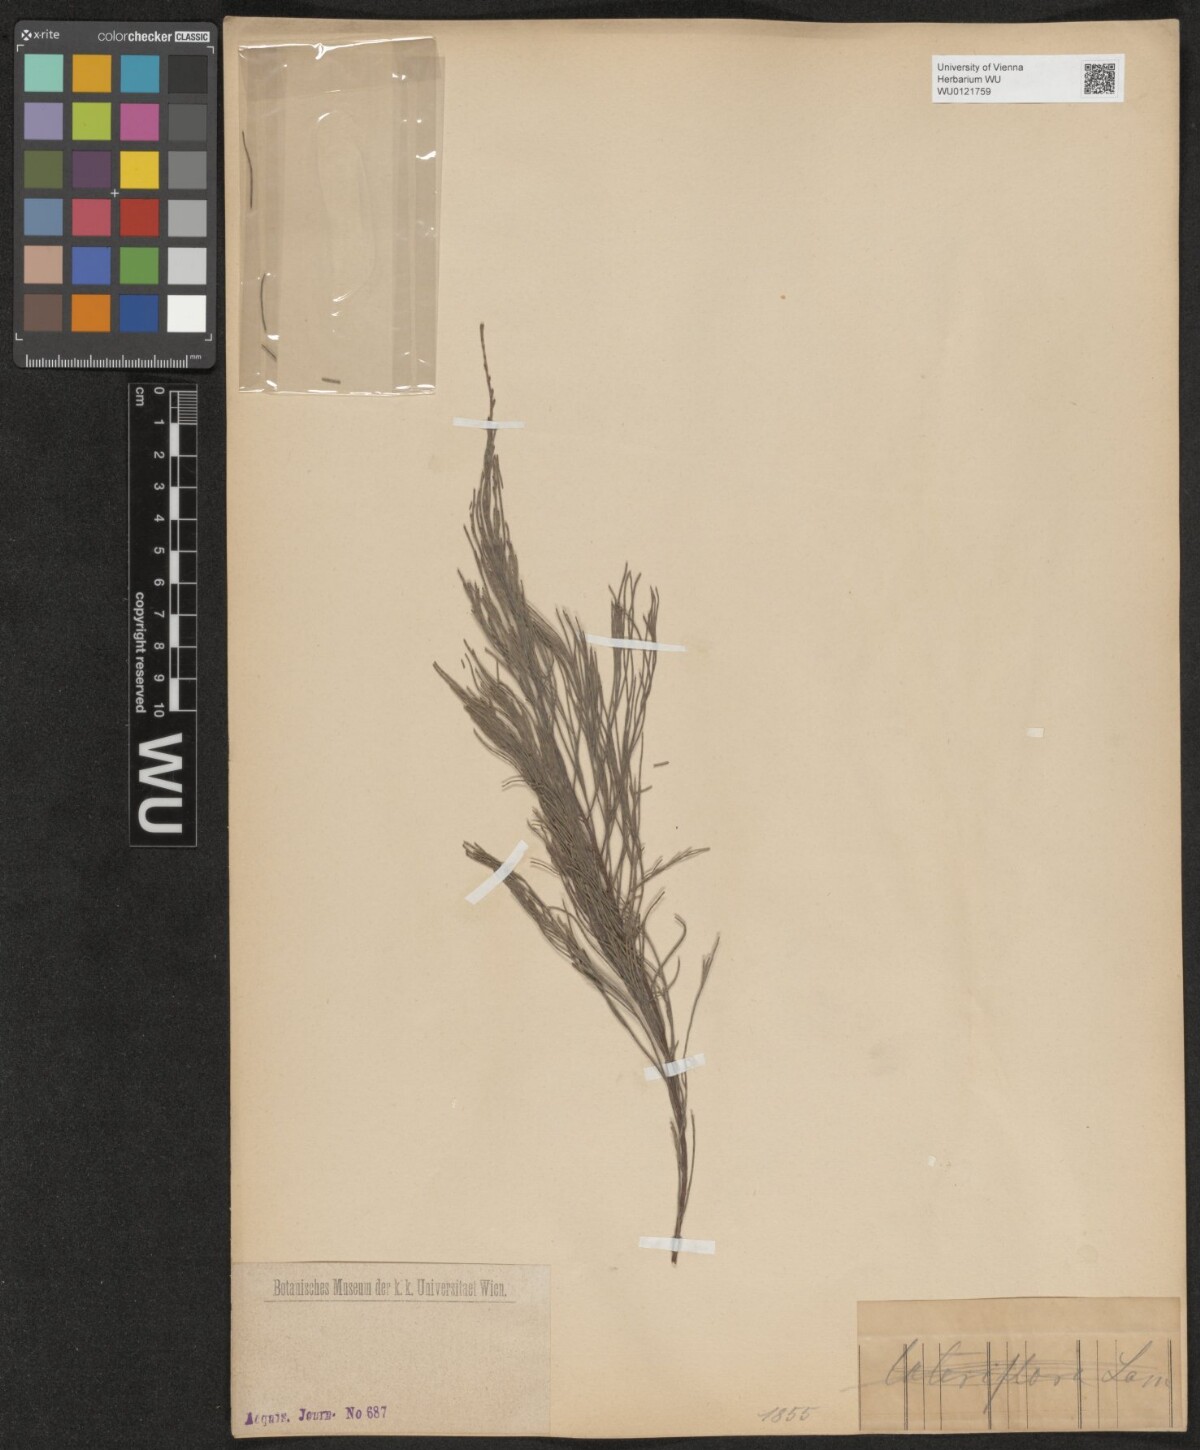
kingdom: Plantae
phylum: Tracheophyta
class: Magnoliopsida
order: Fagales
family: Casuarinaceae
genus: Casuarina
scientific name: Casuarina
